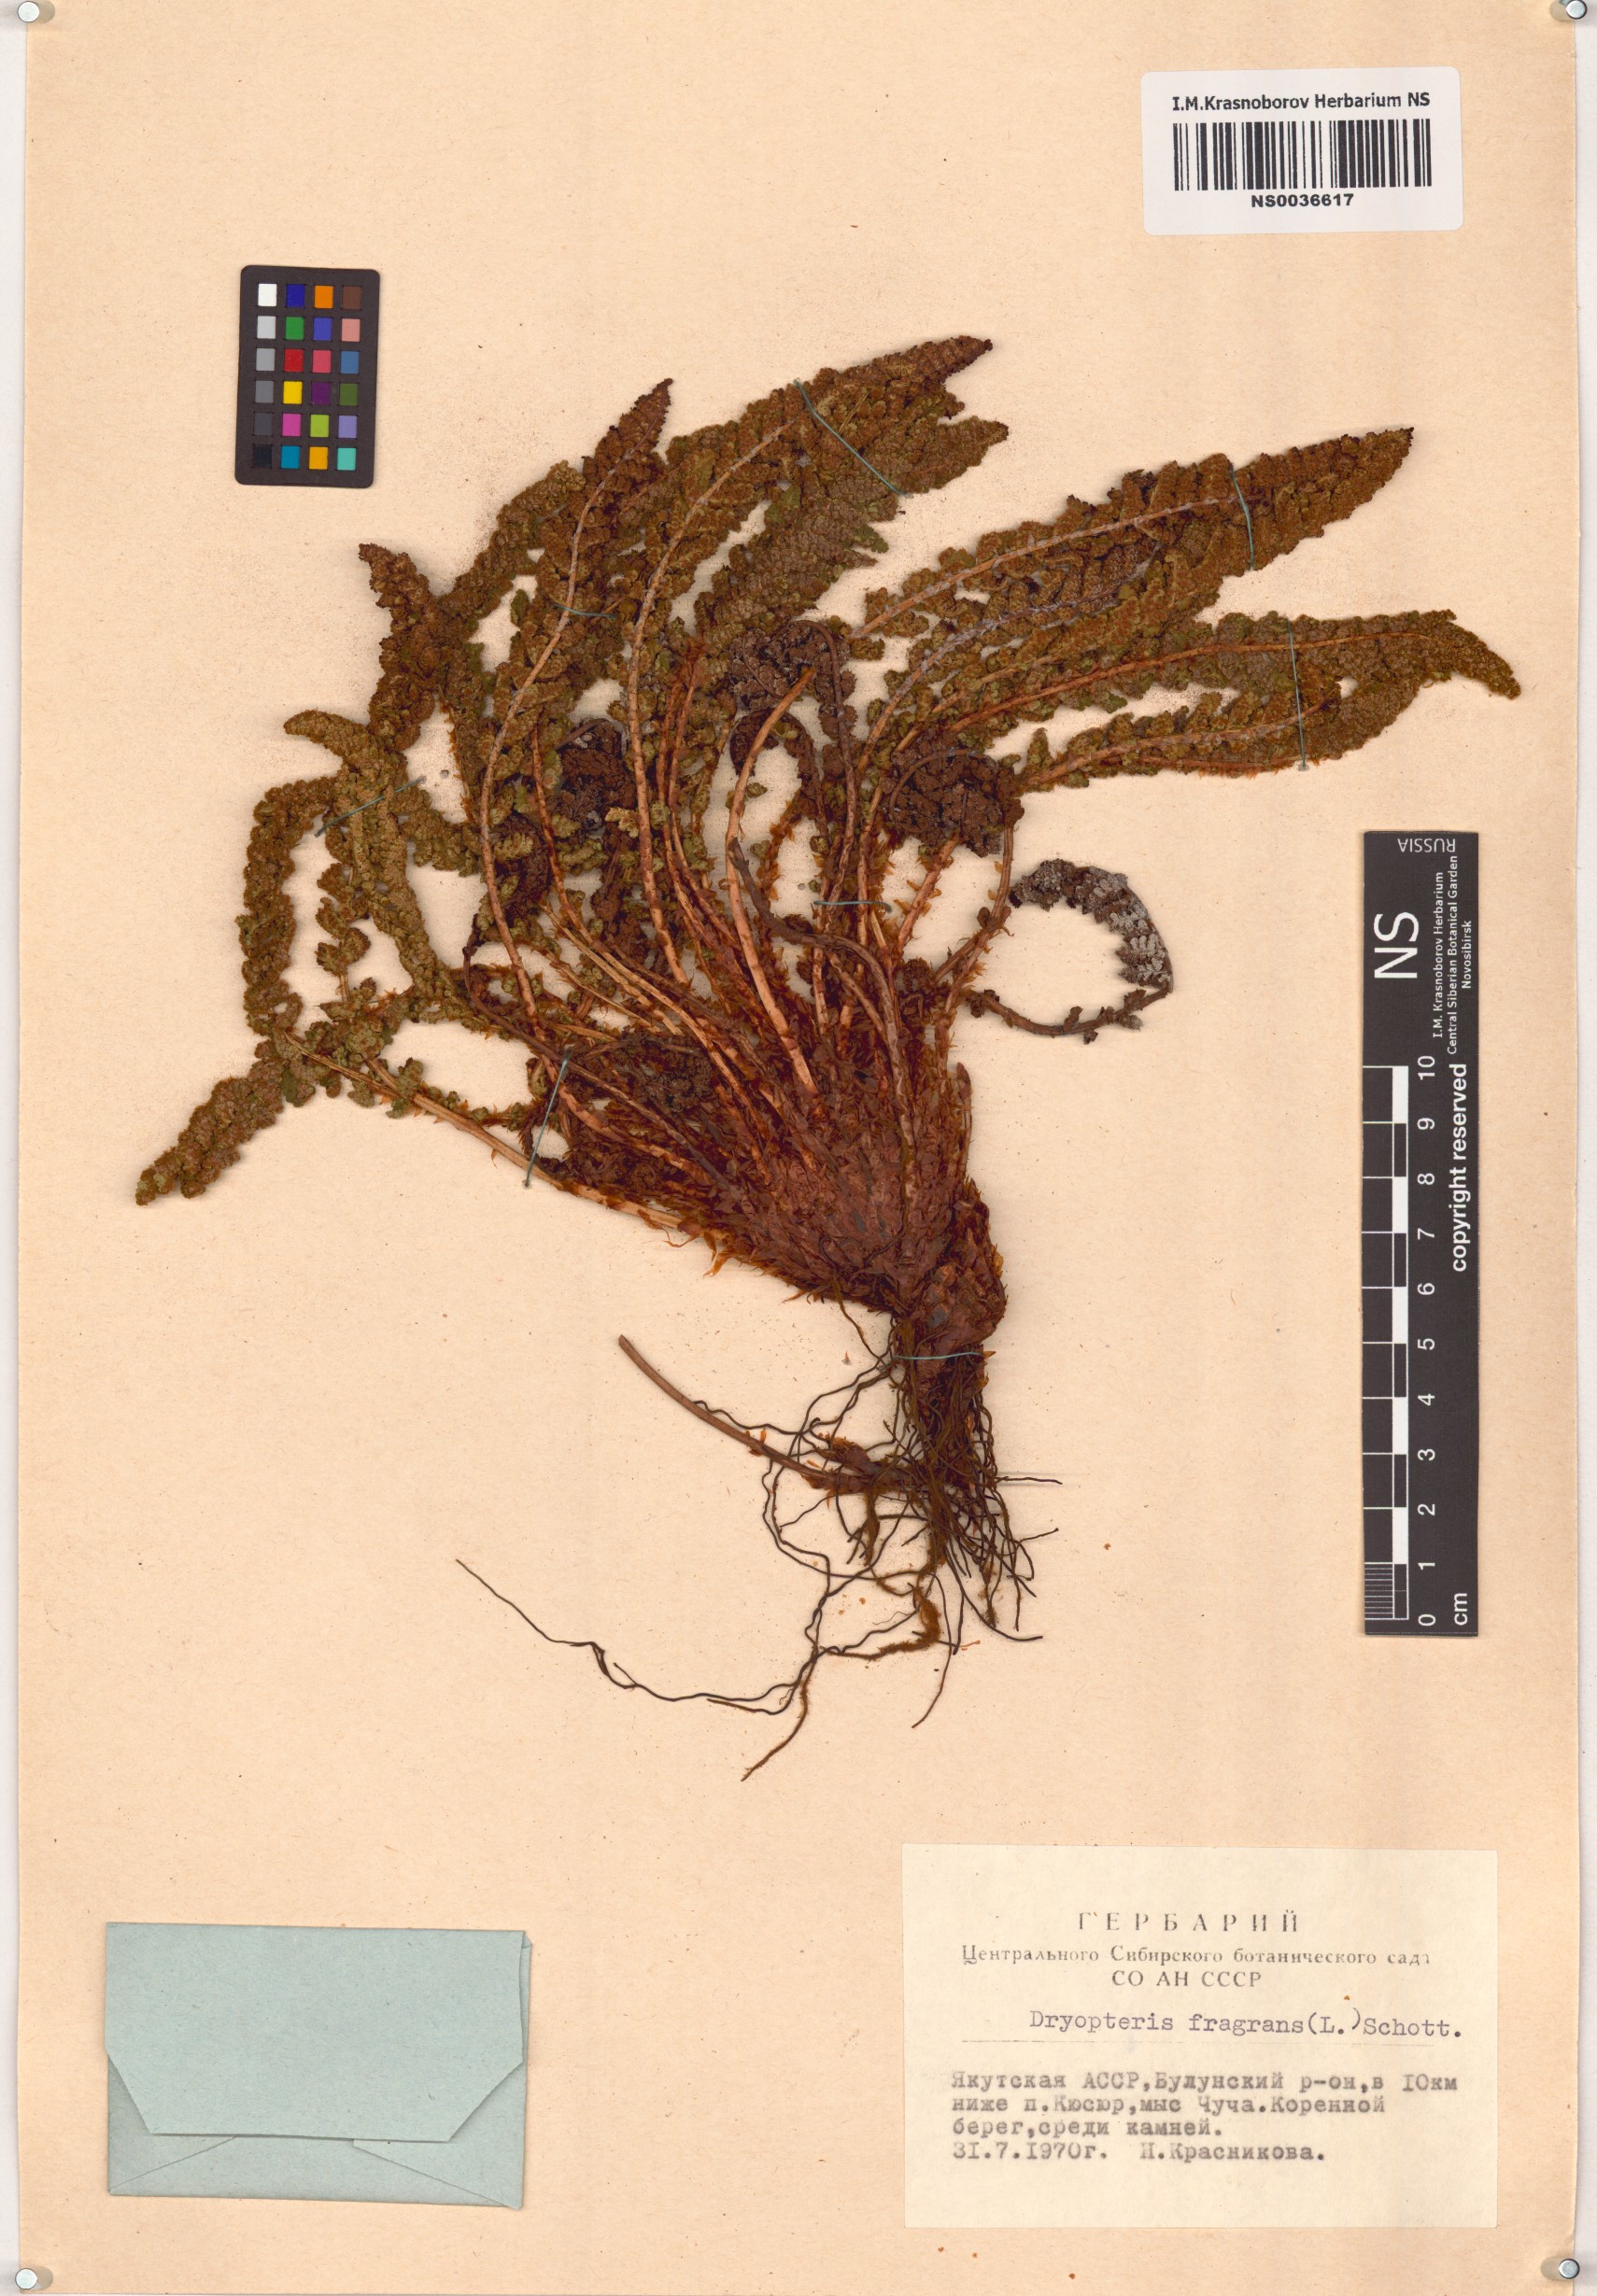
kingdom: Plantae
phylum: Tracheophyta
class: Polypodiopsida
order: Polypodiales
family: Dryopteridaceae
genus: Dryopteris
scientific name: Dryopteris fragrans
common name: Fragrant wood fern
